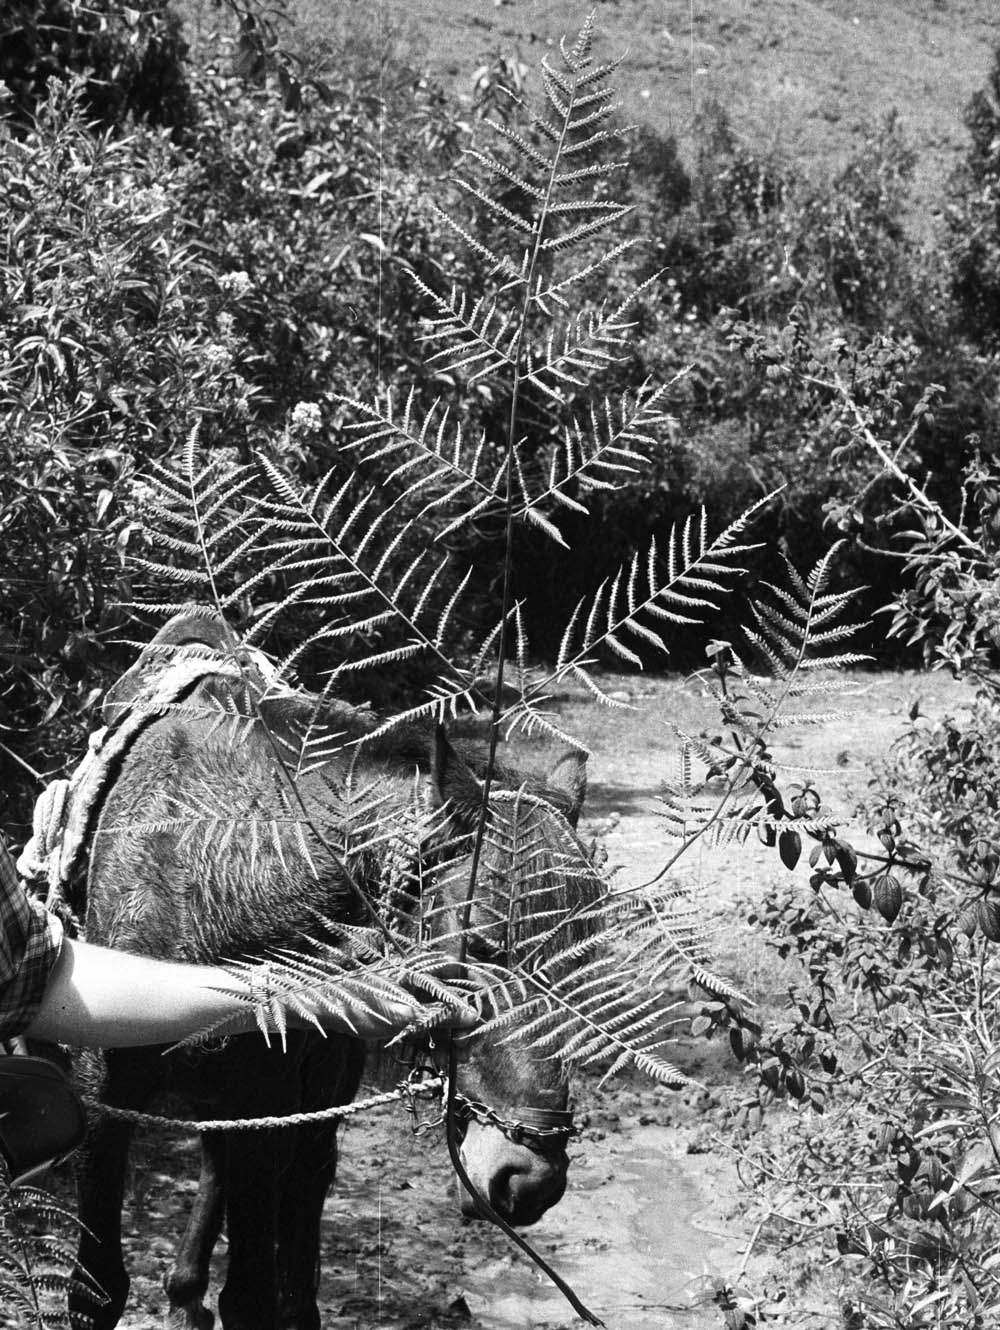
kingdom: Plantae
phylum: Tracheophyta
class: Polypodiopsida
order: Polypodiales
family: Pteridaceae
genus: Pteris
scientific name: Pteris muricata
